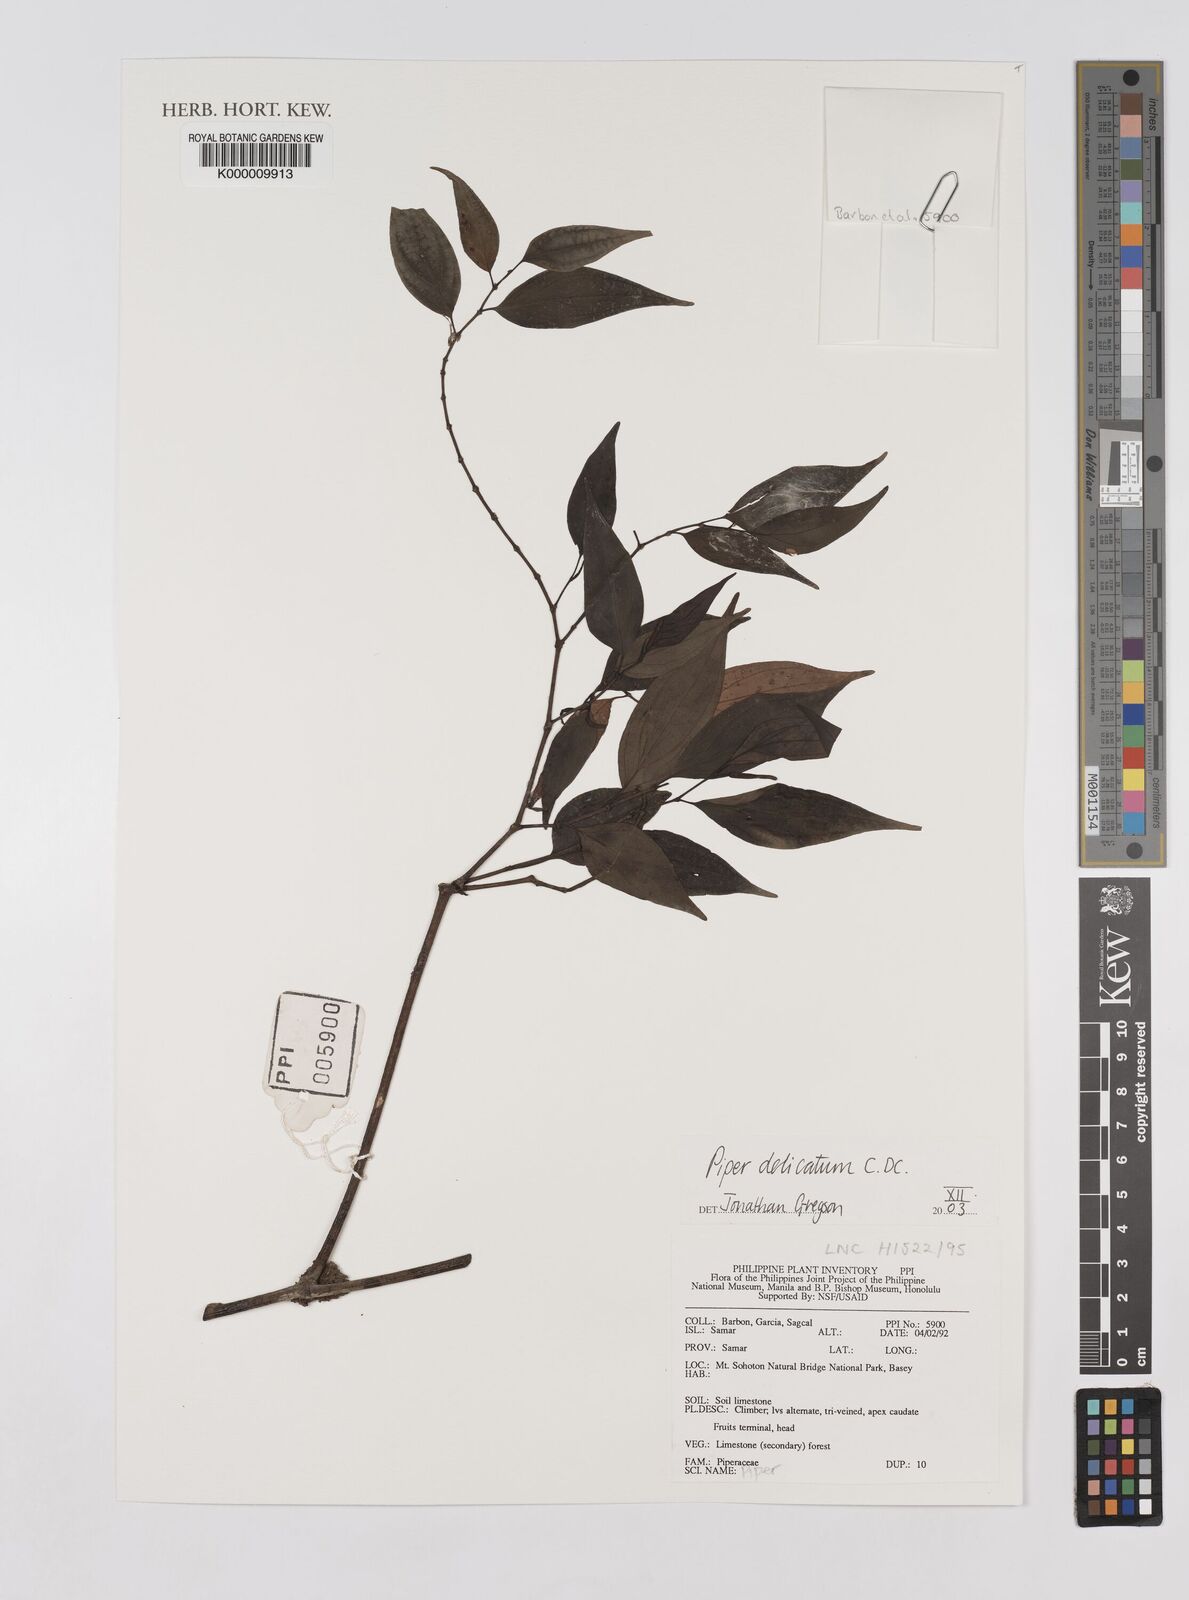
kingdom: Plantae
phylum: Tracheophyta
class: Magnoliopsida
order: Piperales
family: Piperaceae
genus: Piper
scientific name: Piper delicatum
